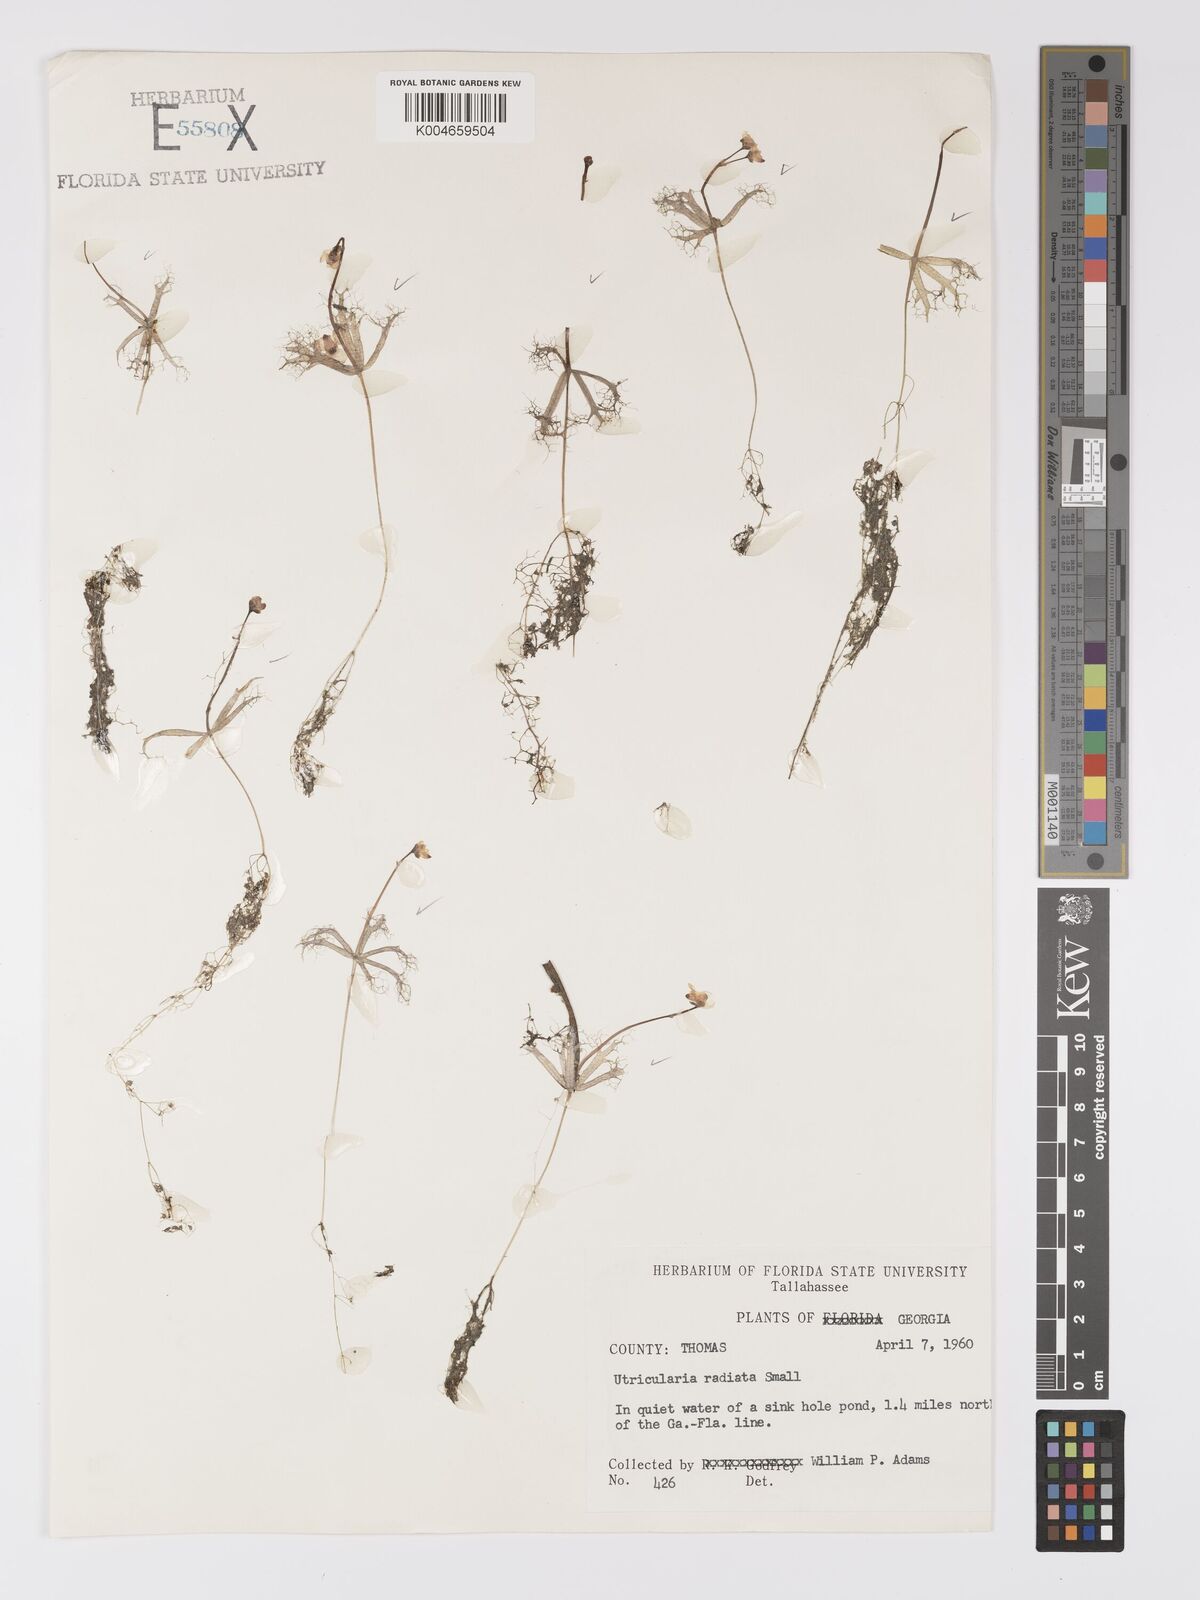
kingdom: Plantae
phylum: Tracheophyta
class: Magnoliopsida
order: Lamiales
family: Lentibulariaceae
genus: Utricularia
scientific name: Utricularia radiata
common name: Floating bladderwort
